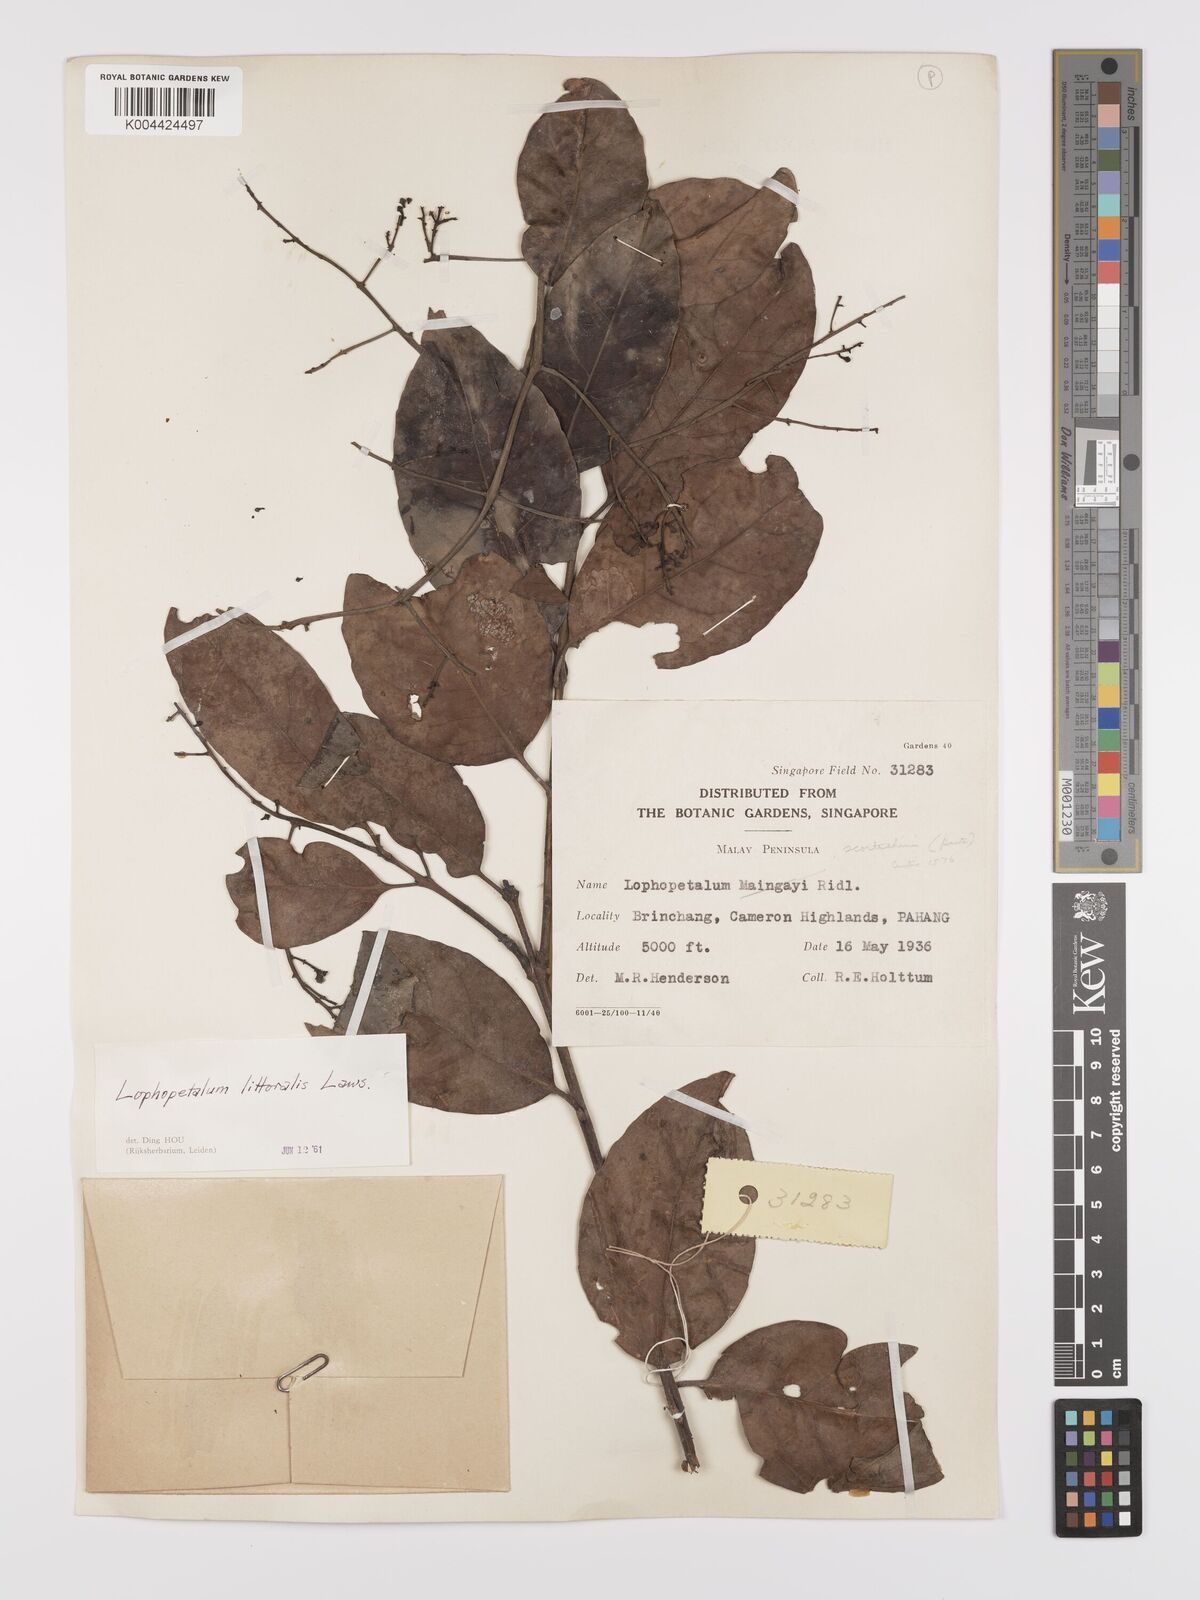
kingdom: Plantae
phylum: Tracheophyta
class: Magnoliopsida
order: Celastrales
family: Celastraceae
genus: Kokoona
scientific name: Kokoona littoralis
